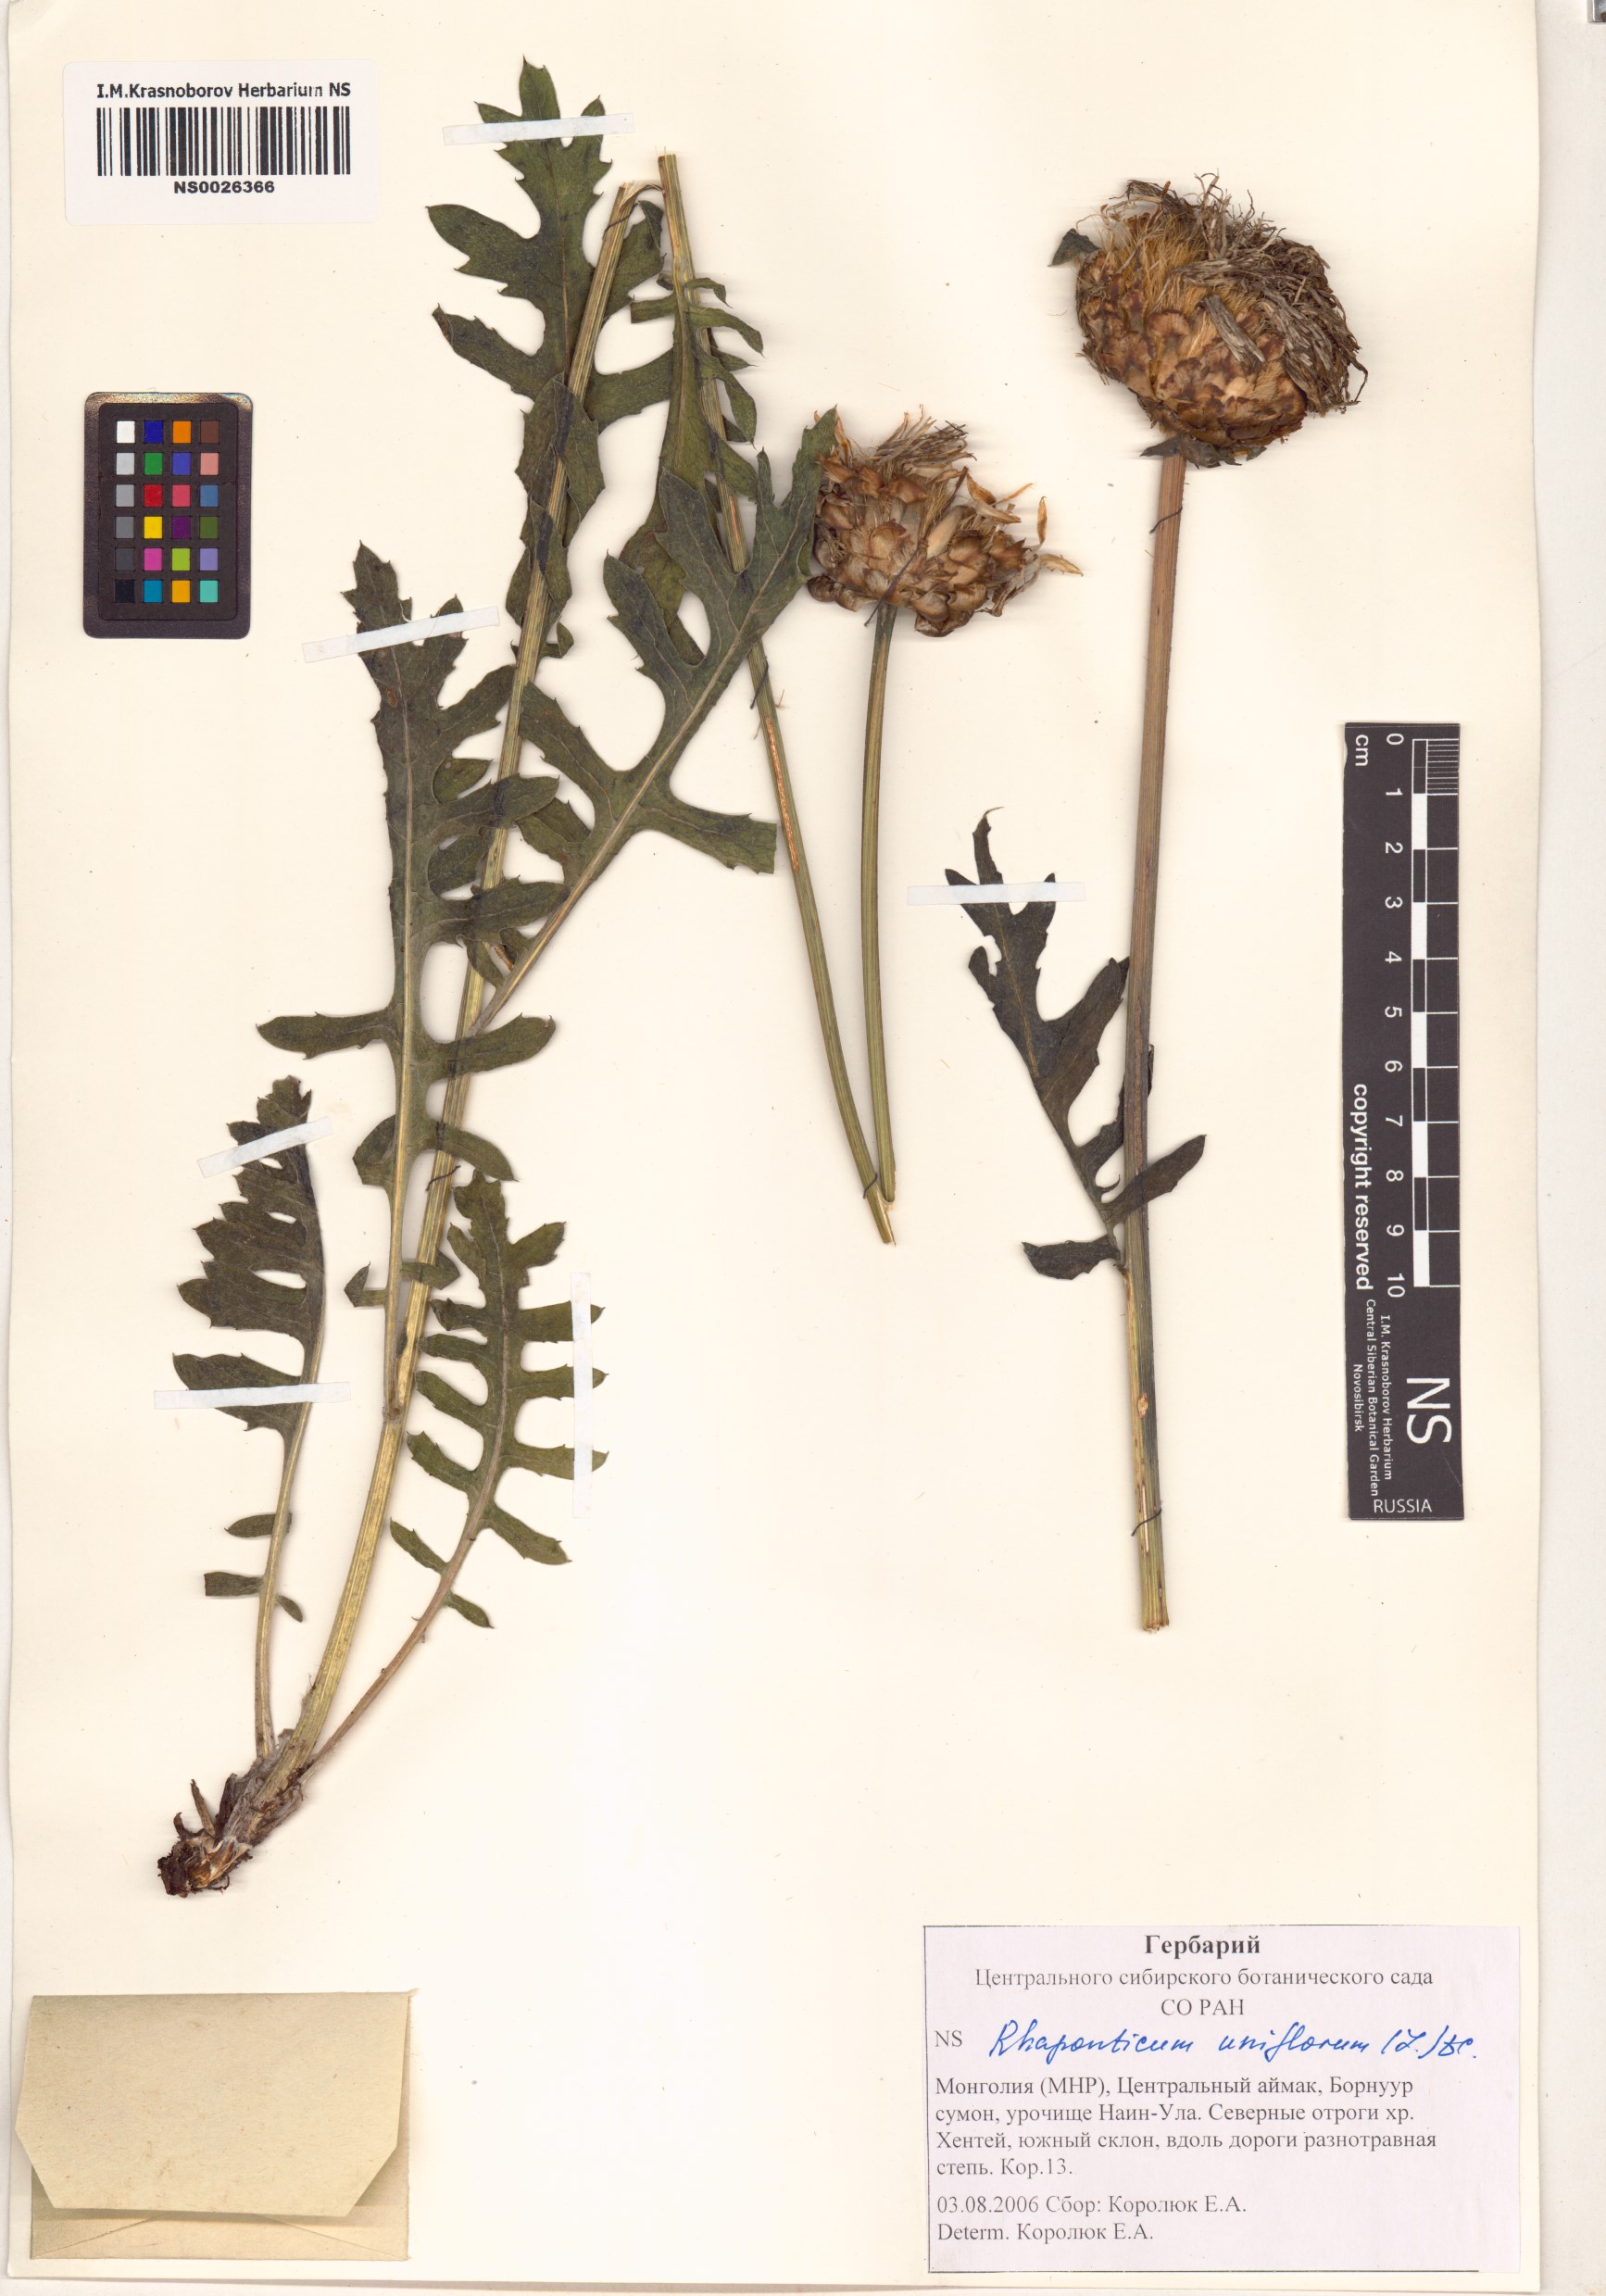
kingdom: Plantae
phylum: Tracheophyta
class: Magnoliopsida
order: Asterales
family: Asteraceae
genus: Leuzea
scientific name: Leuzea uniflora
